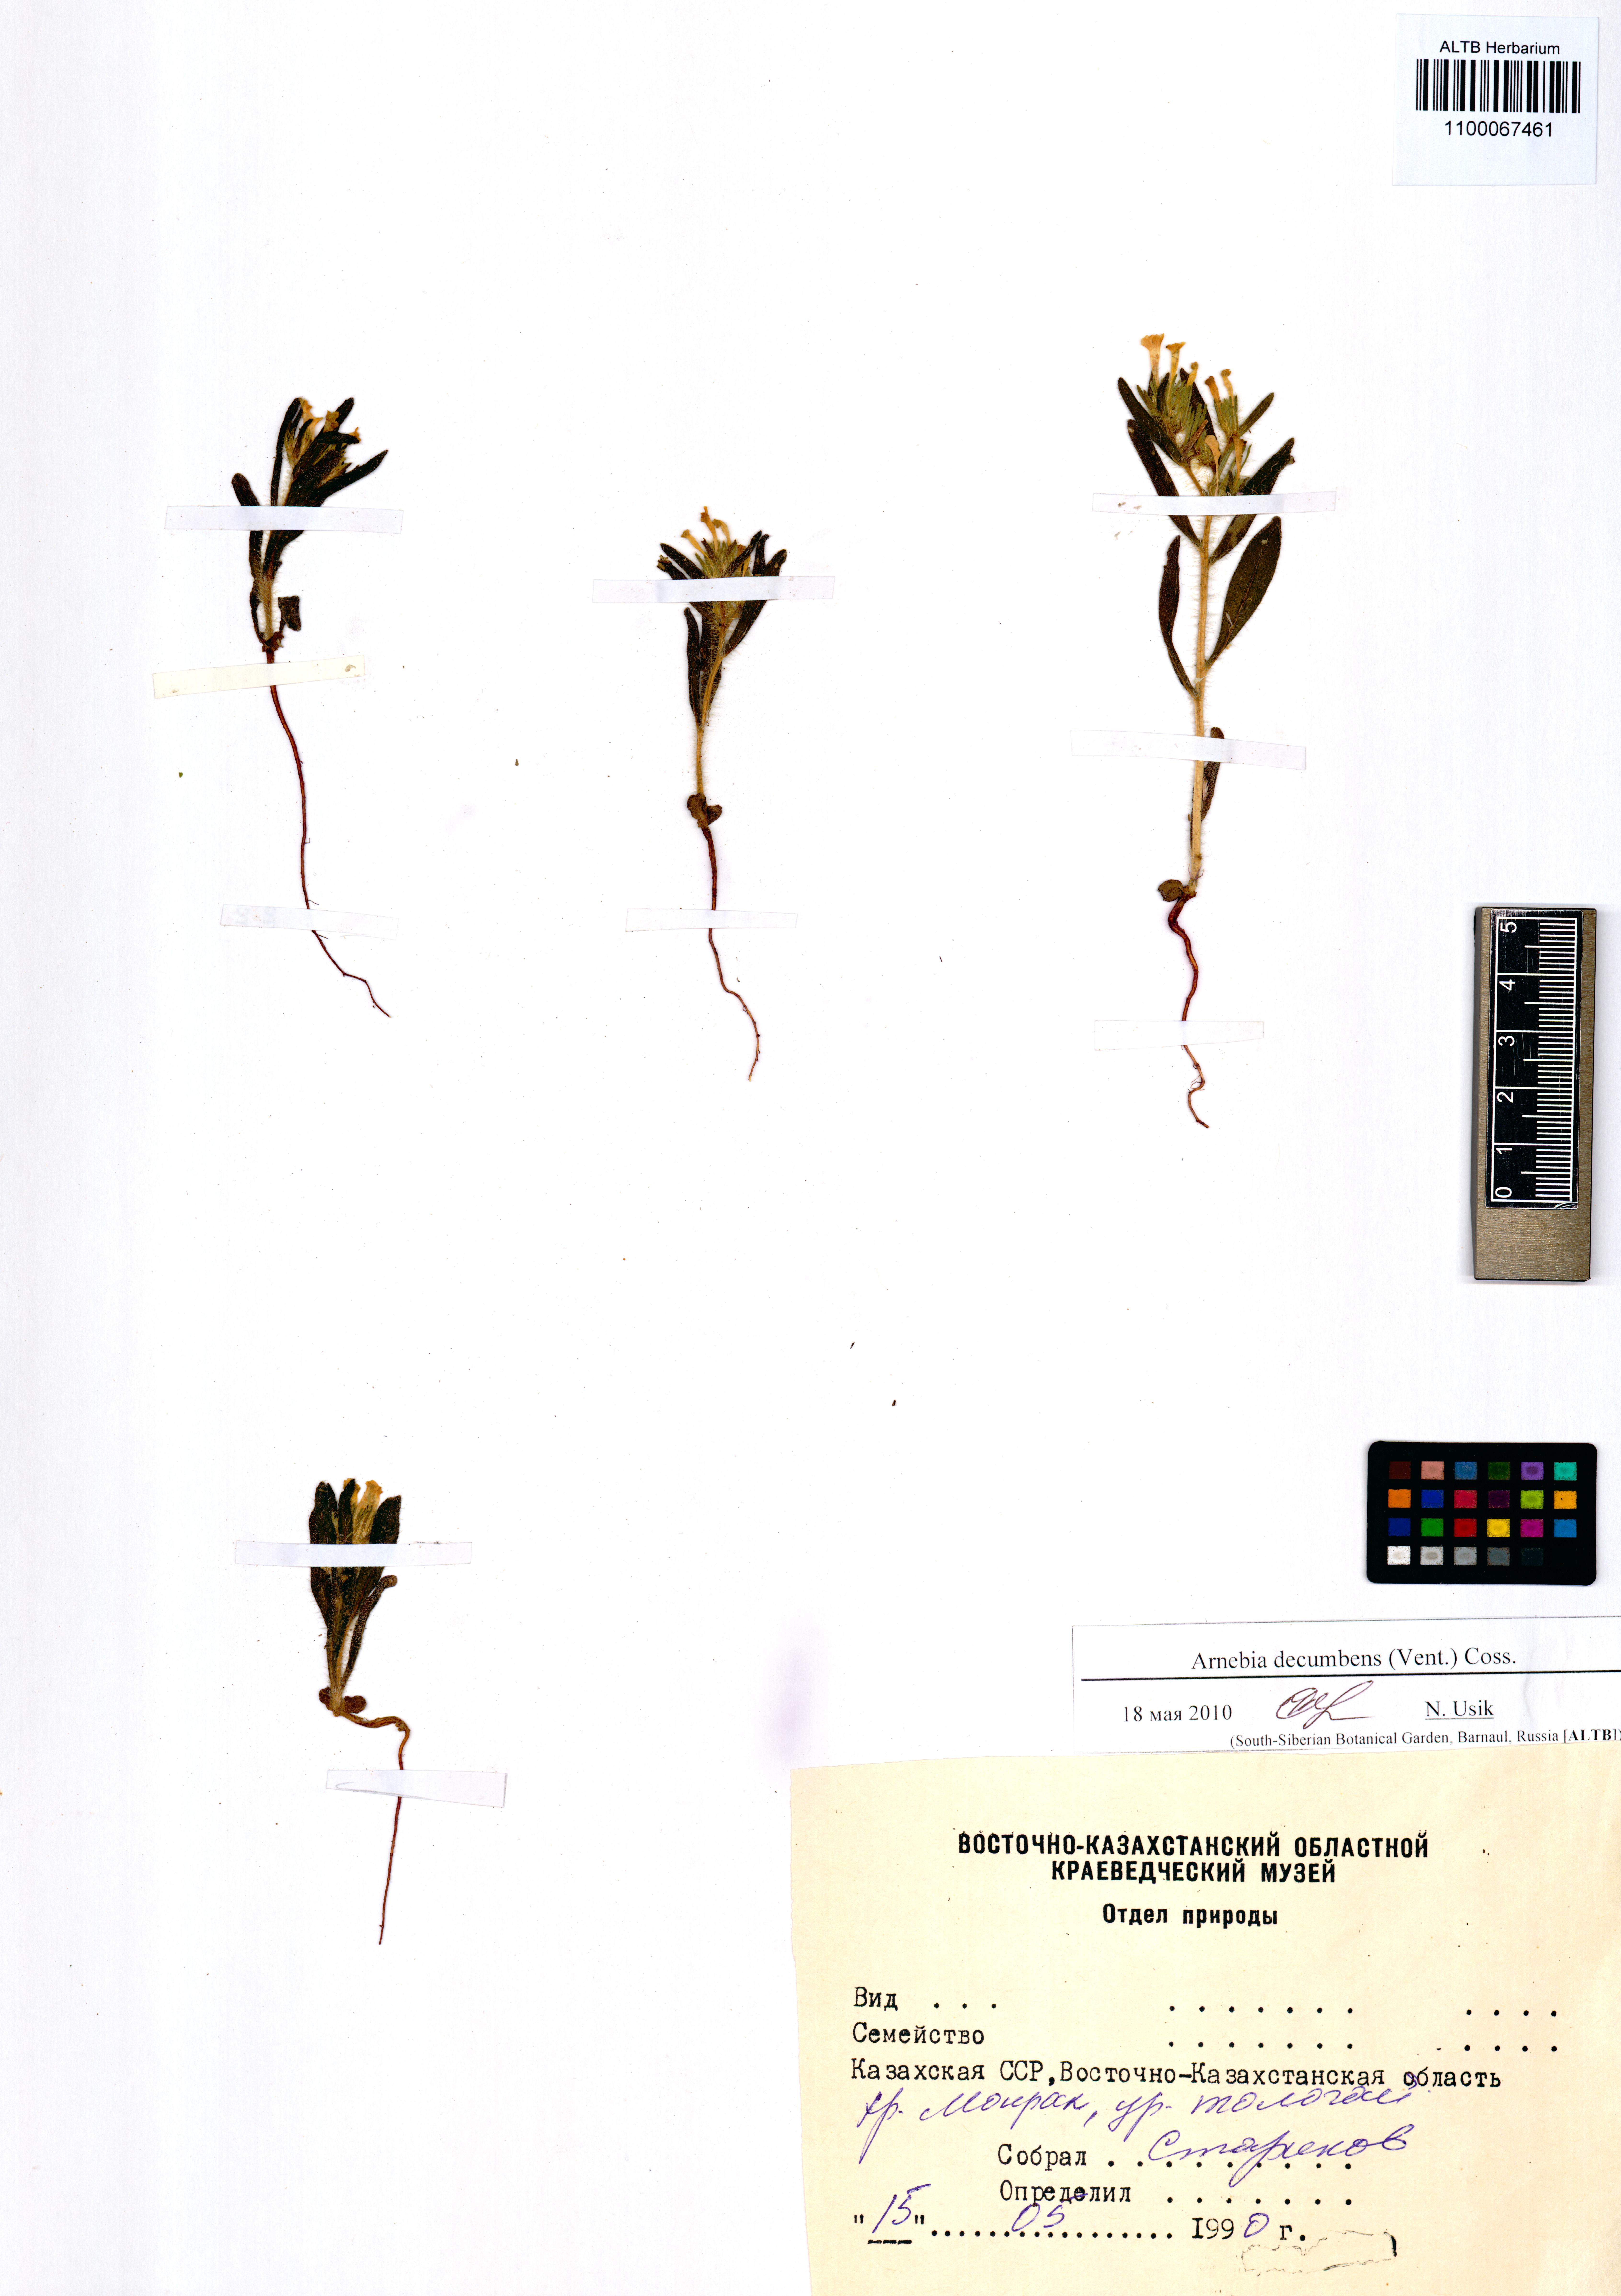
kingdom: Plantae
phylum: Tracheophyta
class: Magnoliopsida
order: Boraginales
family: Boraginaceae
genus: Arnebia
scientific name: Arnebia decumbens
